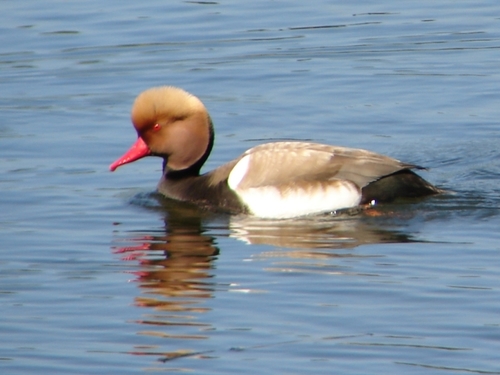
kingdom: Animalia
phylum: Chordata
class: Aves
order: Anseriformes
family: Anatidae
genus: Netta
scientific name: Netta rufina
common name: Red-crested pochard
